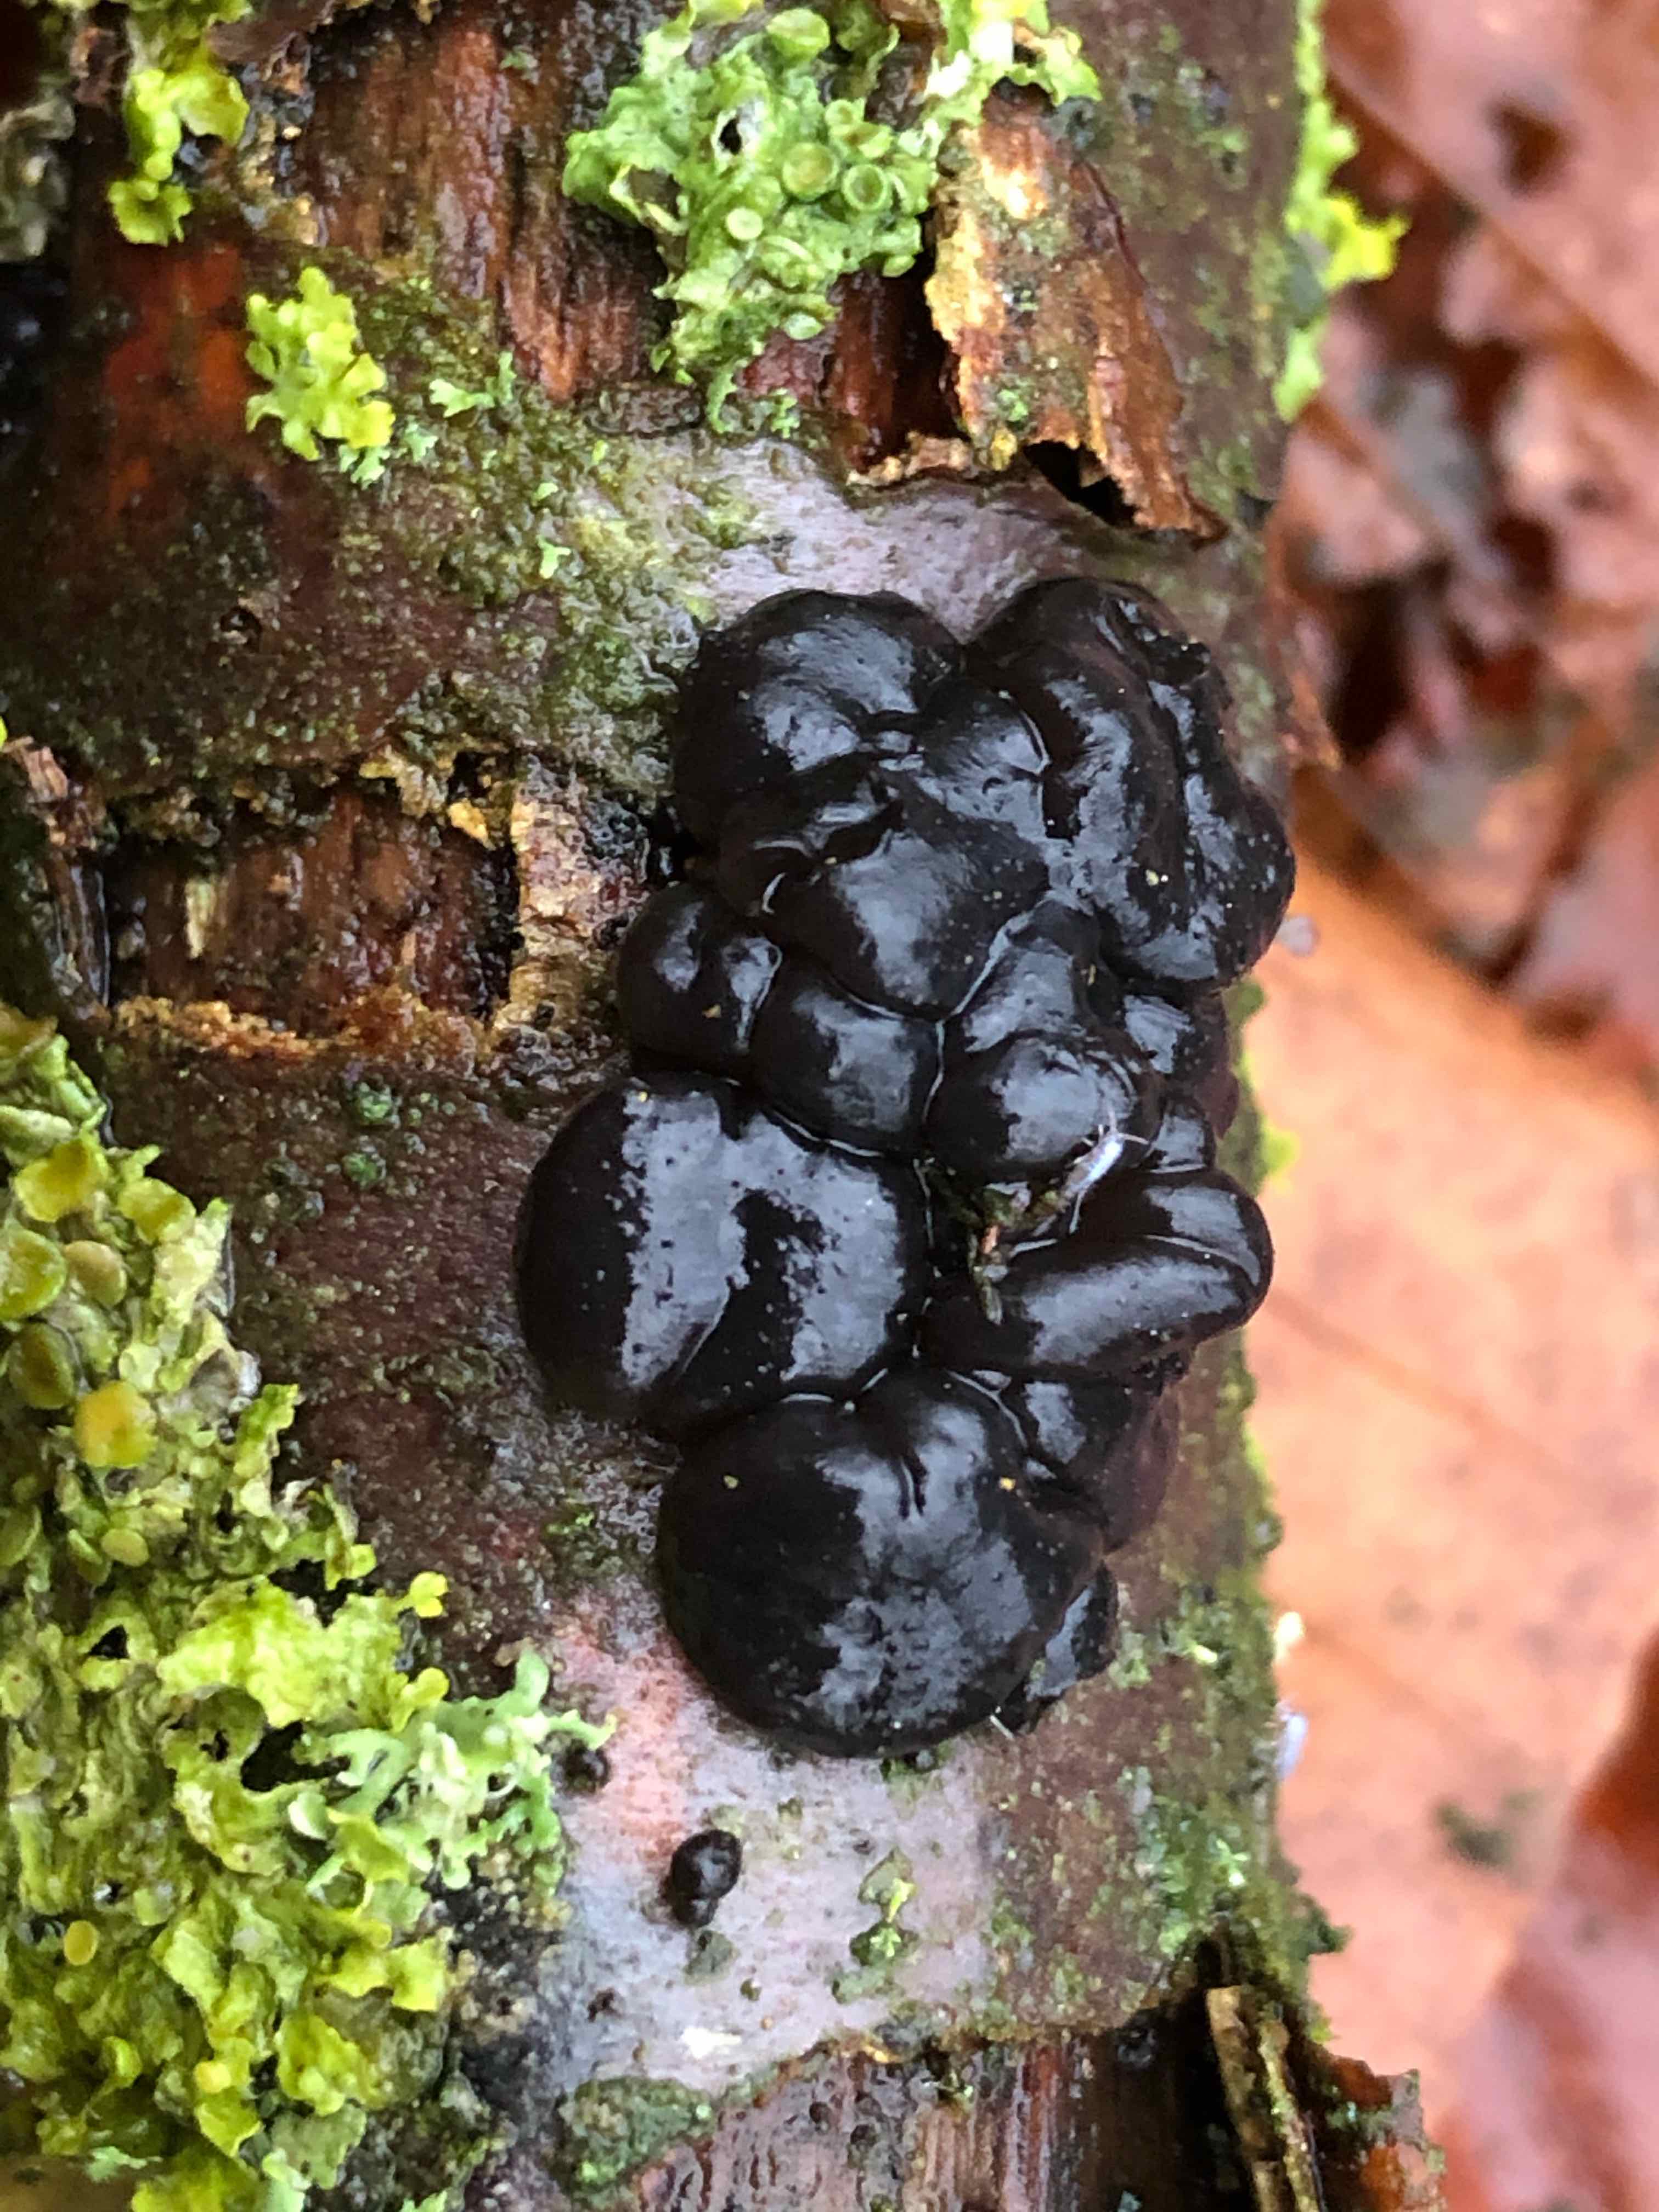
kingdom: Fungi
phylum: Basidiomycota
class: Agaricomycetes
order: Auriculariales
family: Auriculariaceae
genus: Exidia
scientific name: Exidia nigricans
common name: almindelig bævretop
